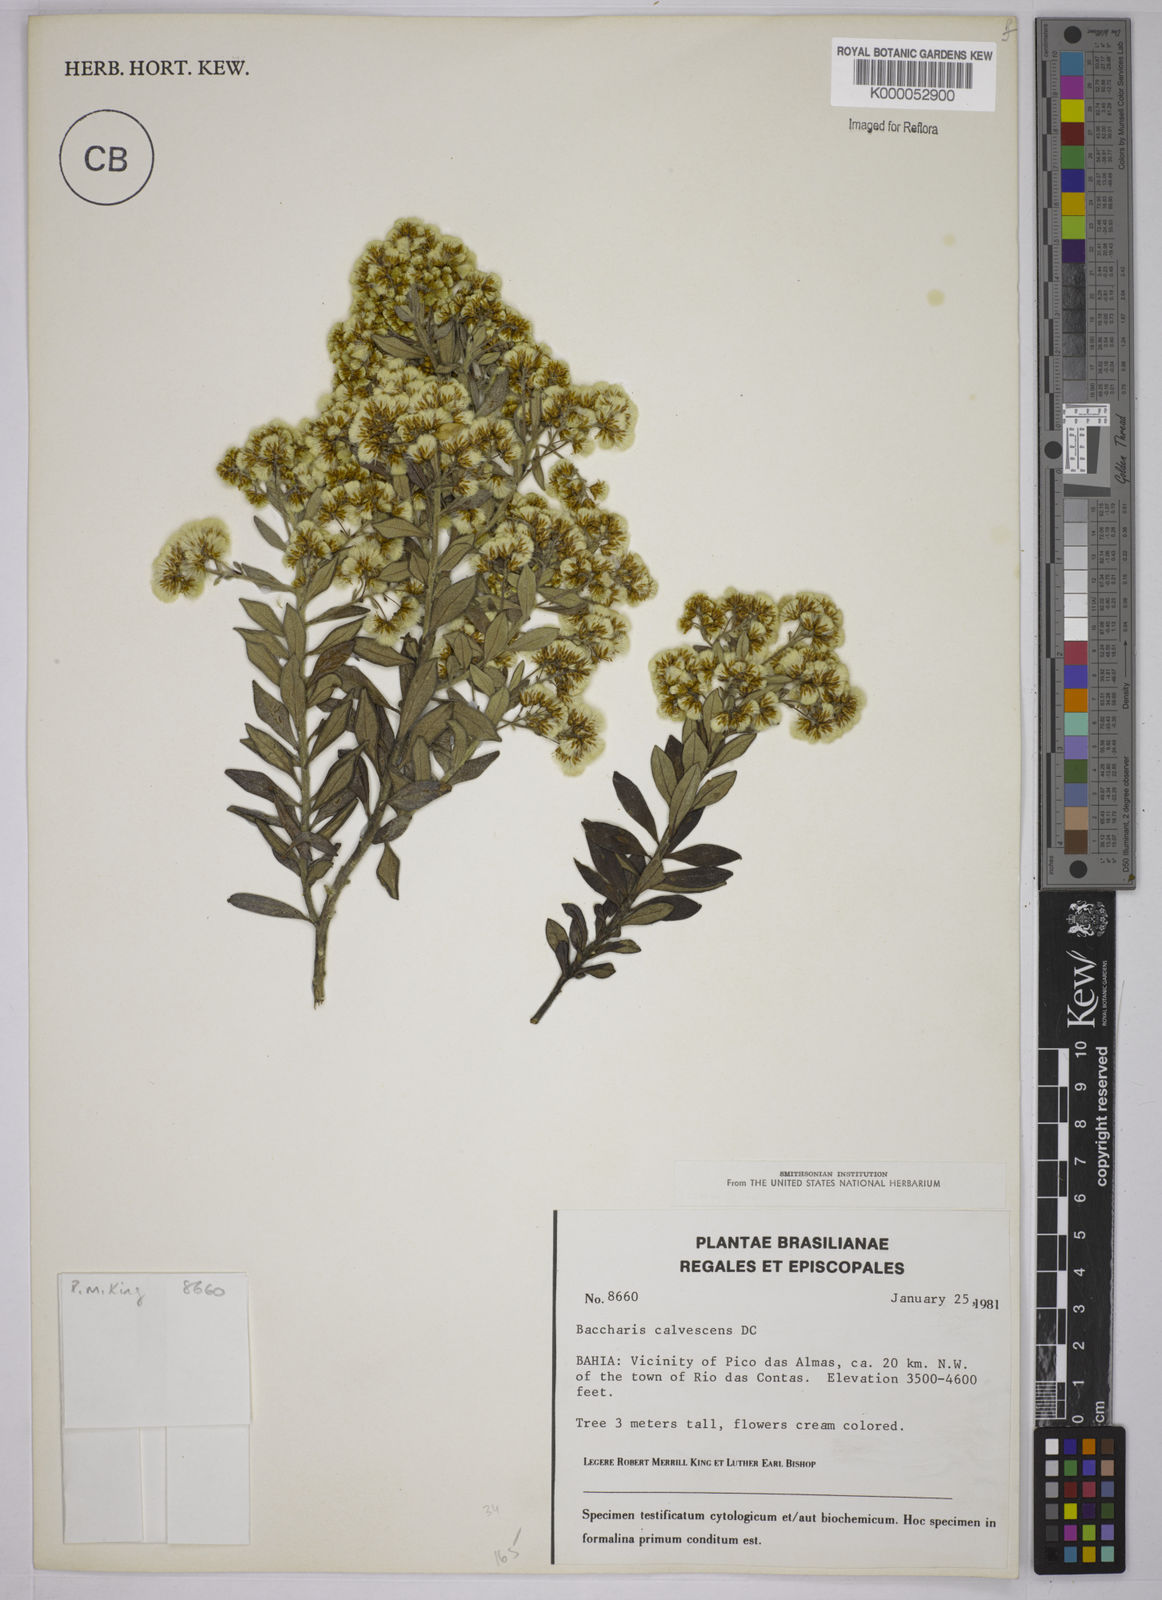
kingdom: Plantae
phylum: Tracheophyta
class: Magnoliopsida
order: Asterales
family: Asteraceae
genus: Baccharis
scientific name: Baccharis calvescens
